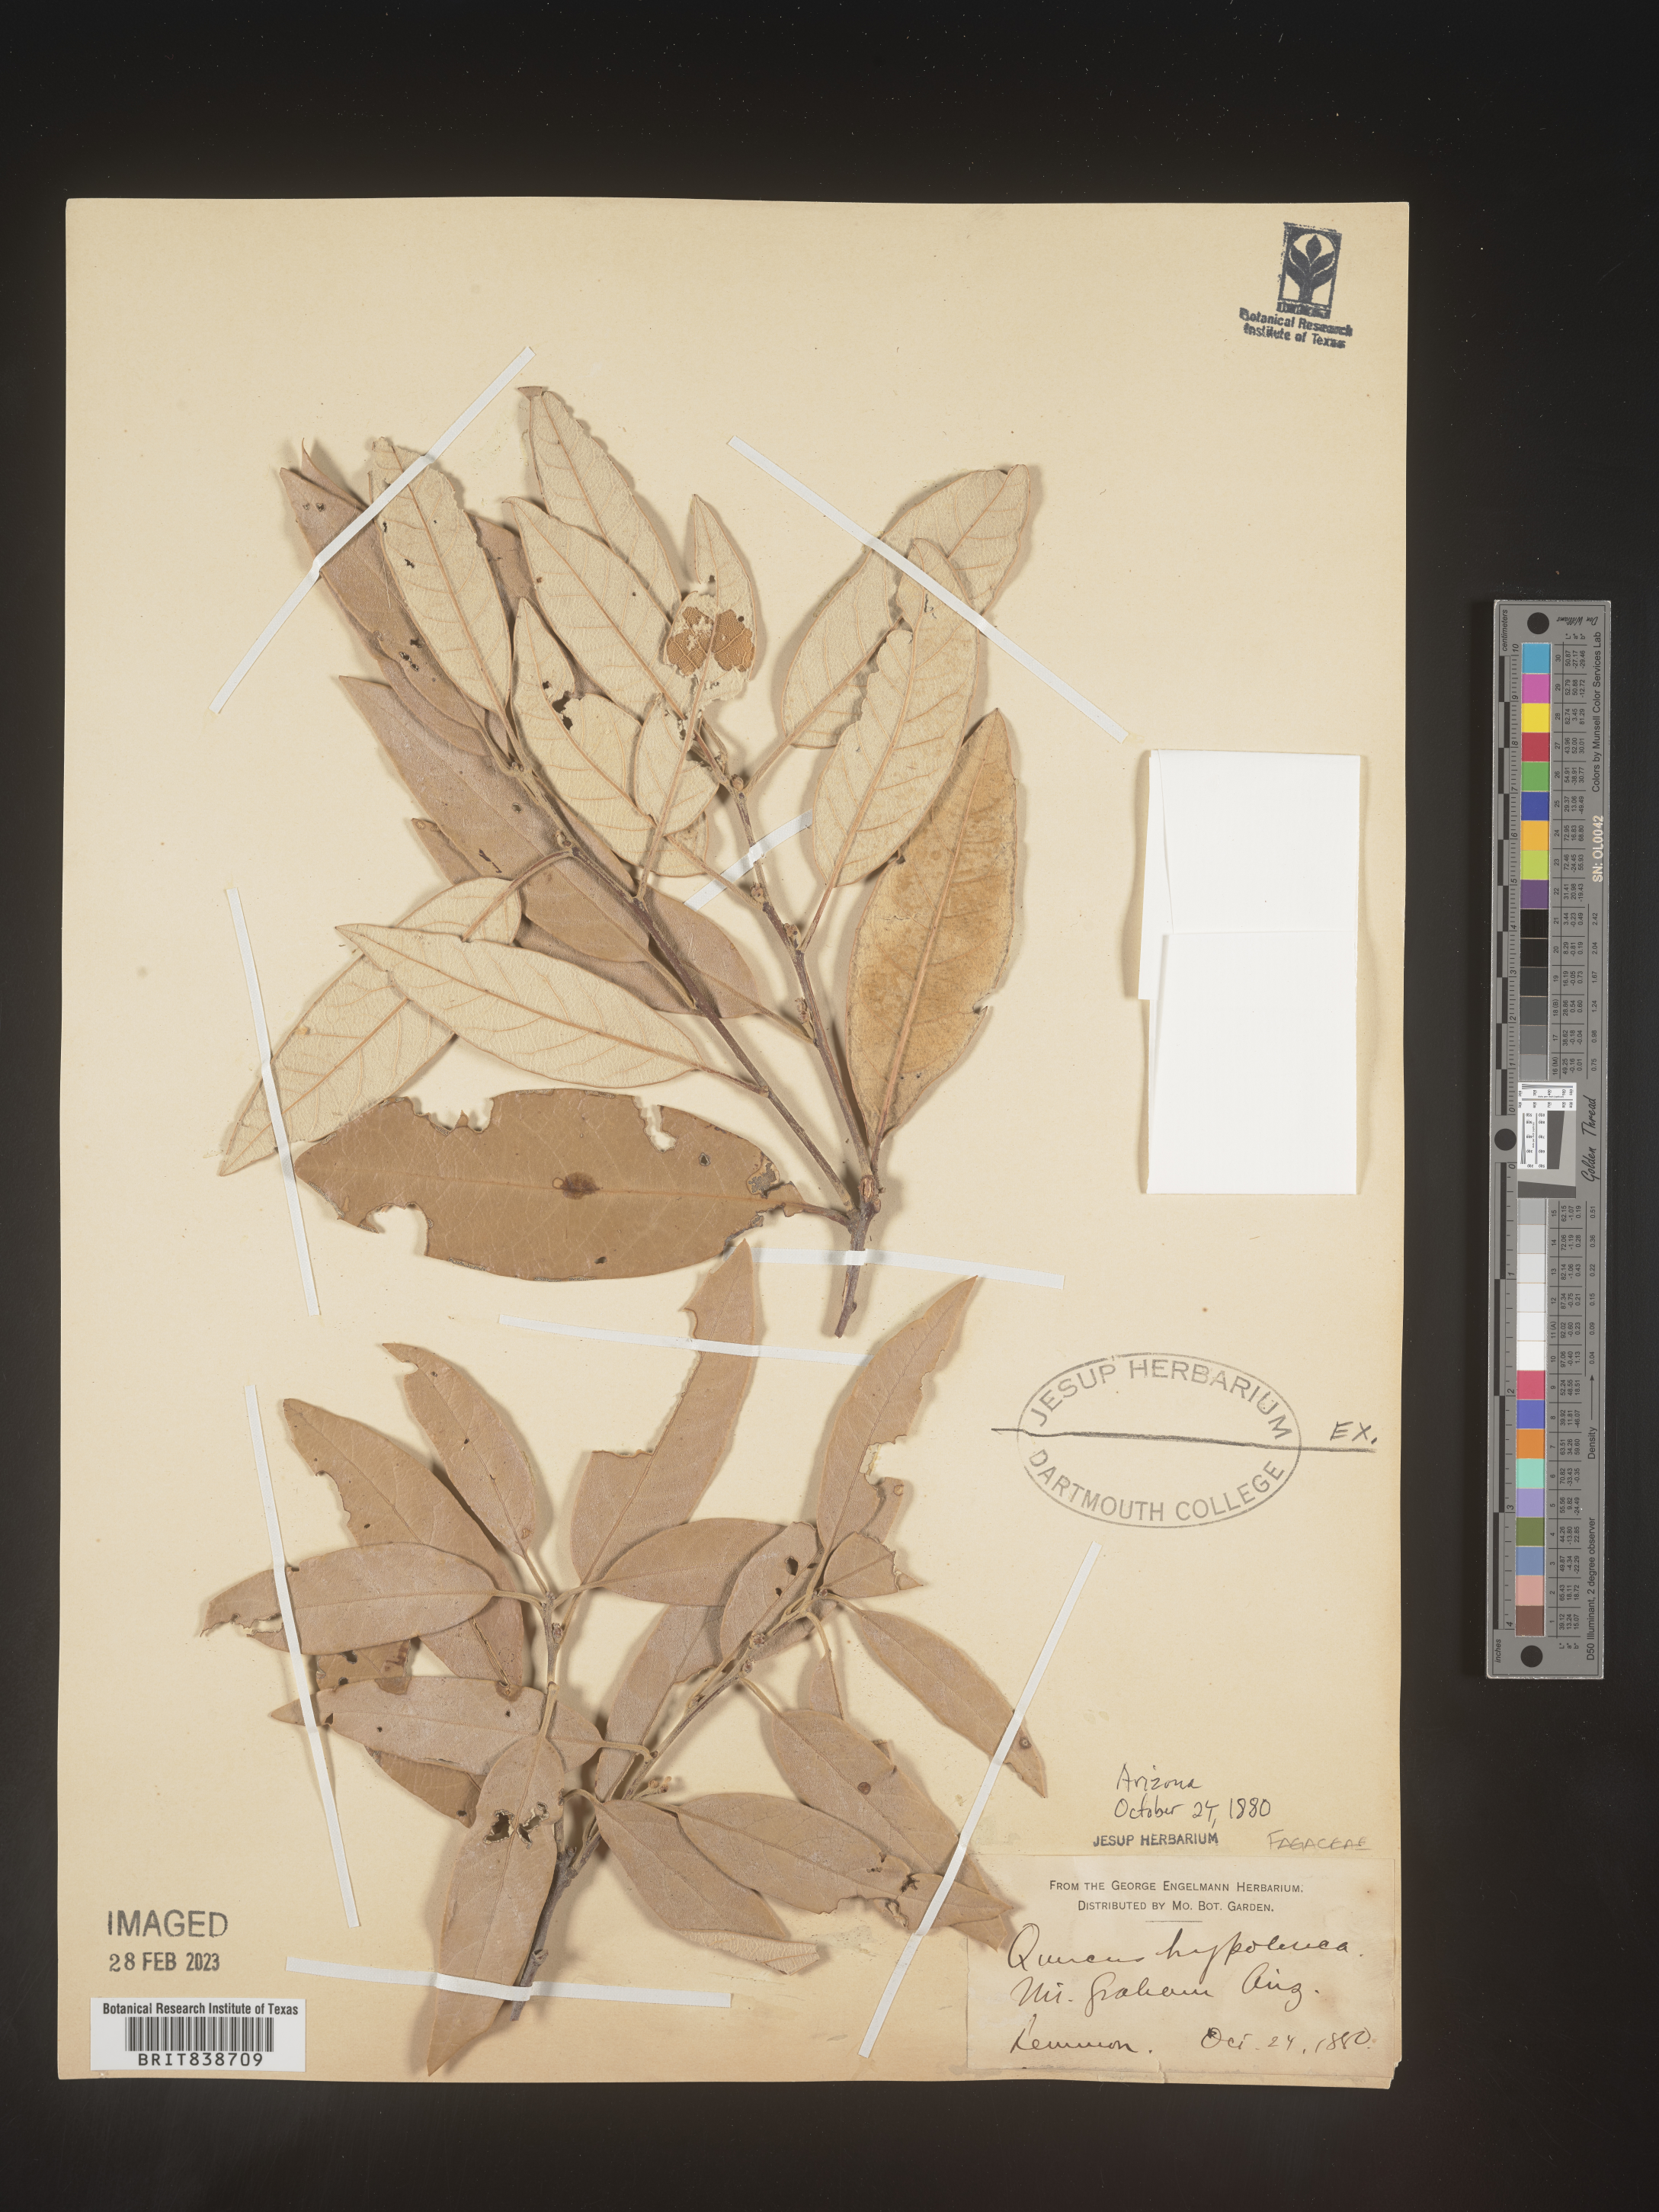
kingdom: Plantae
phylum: Tracheophyta
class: Magnoliopsida
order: Fagales
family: Fagaceae
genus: Quercus
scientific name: Quercus
